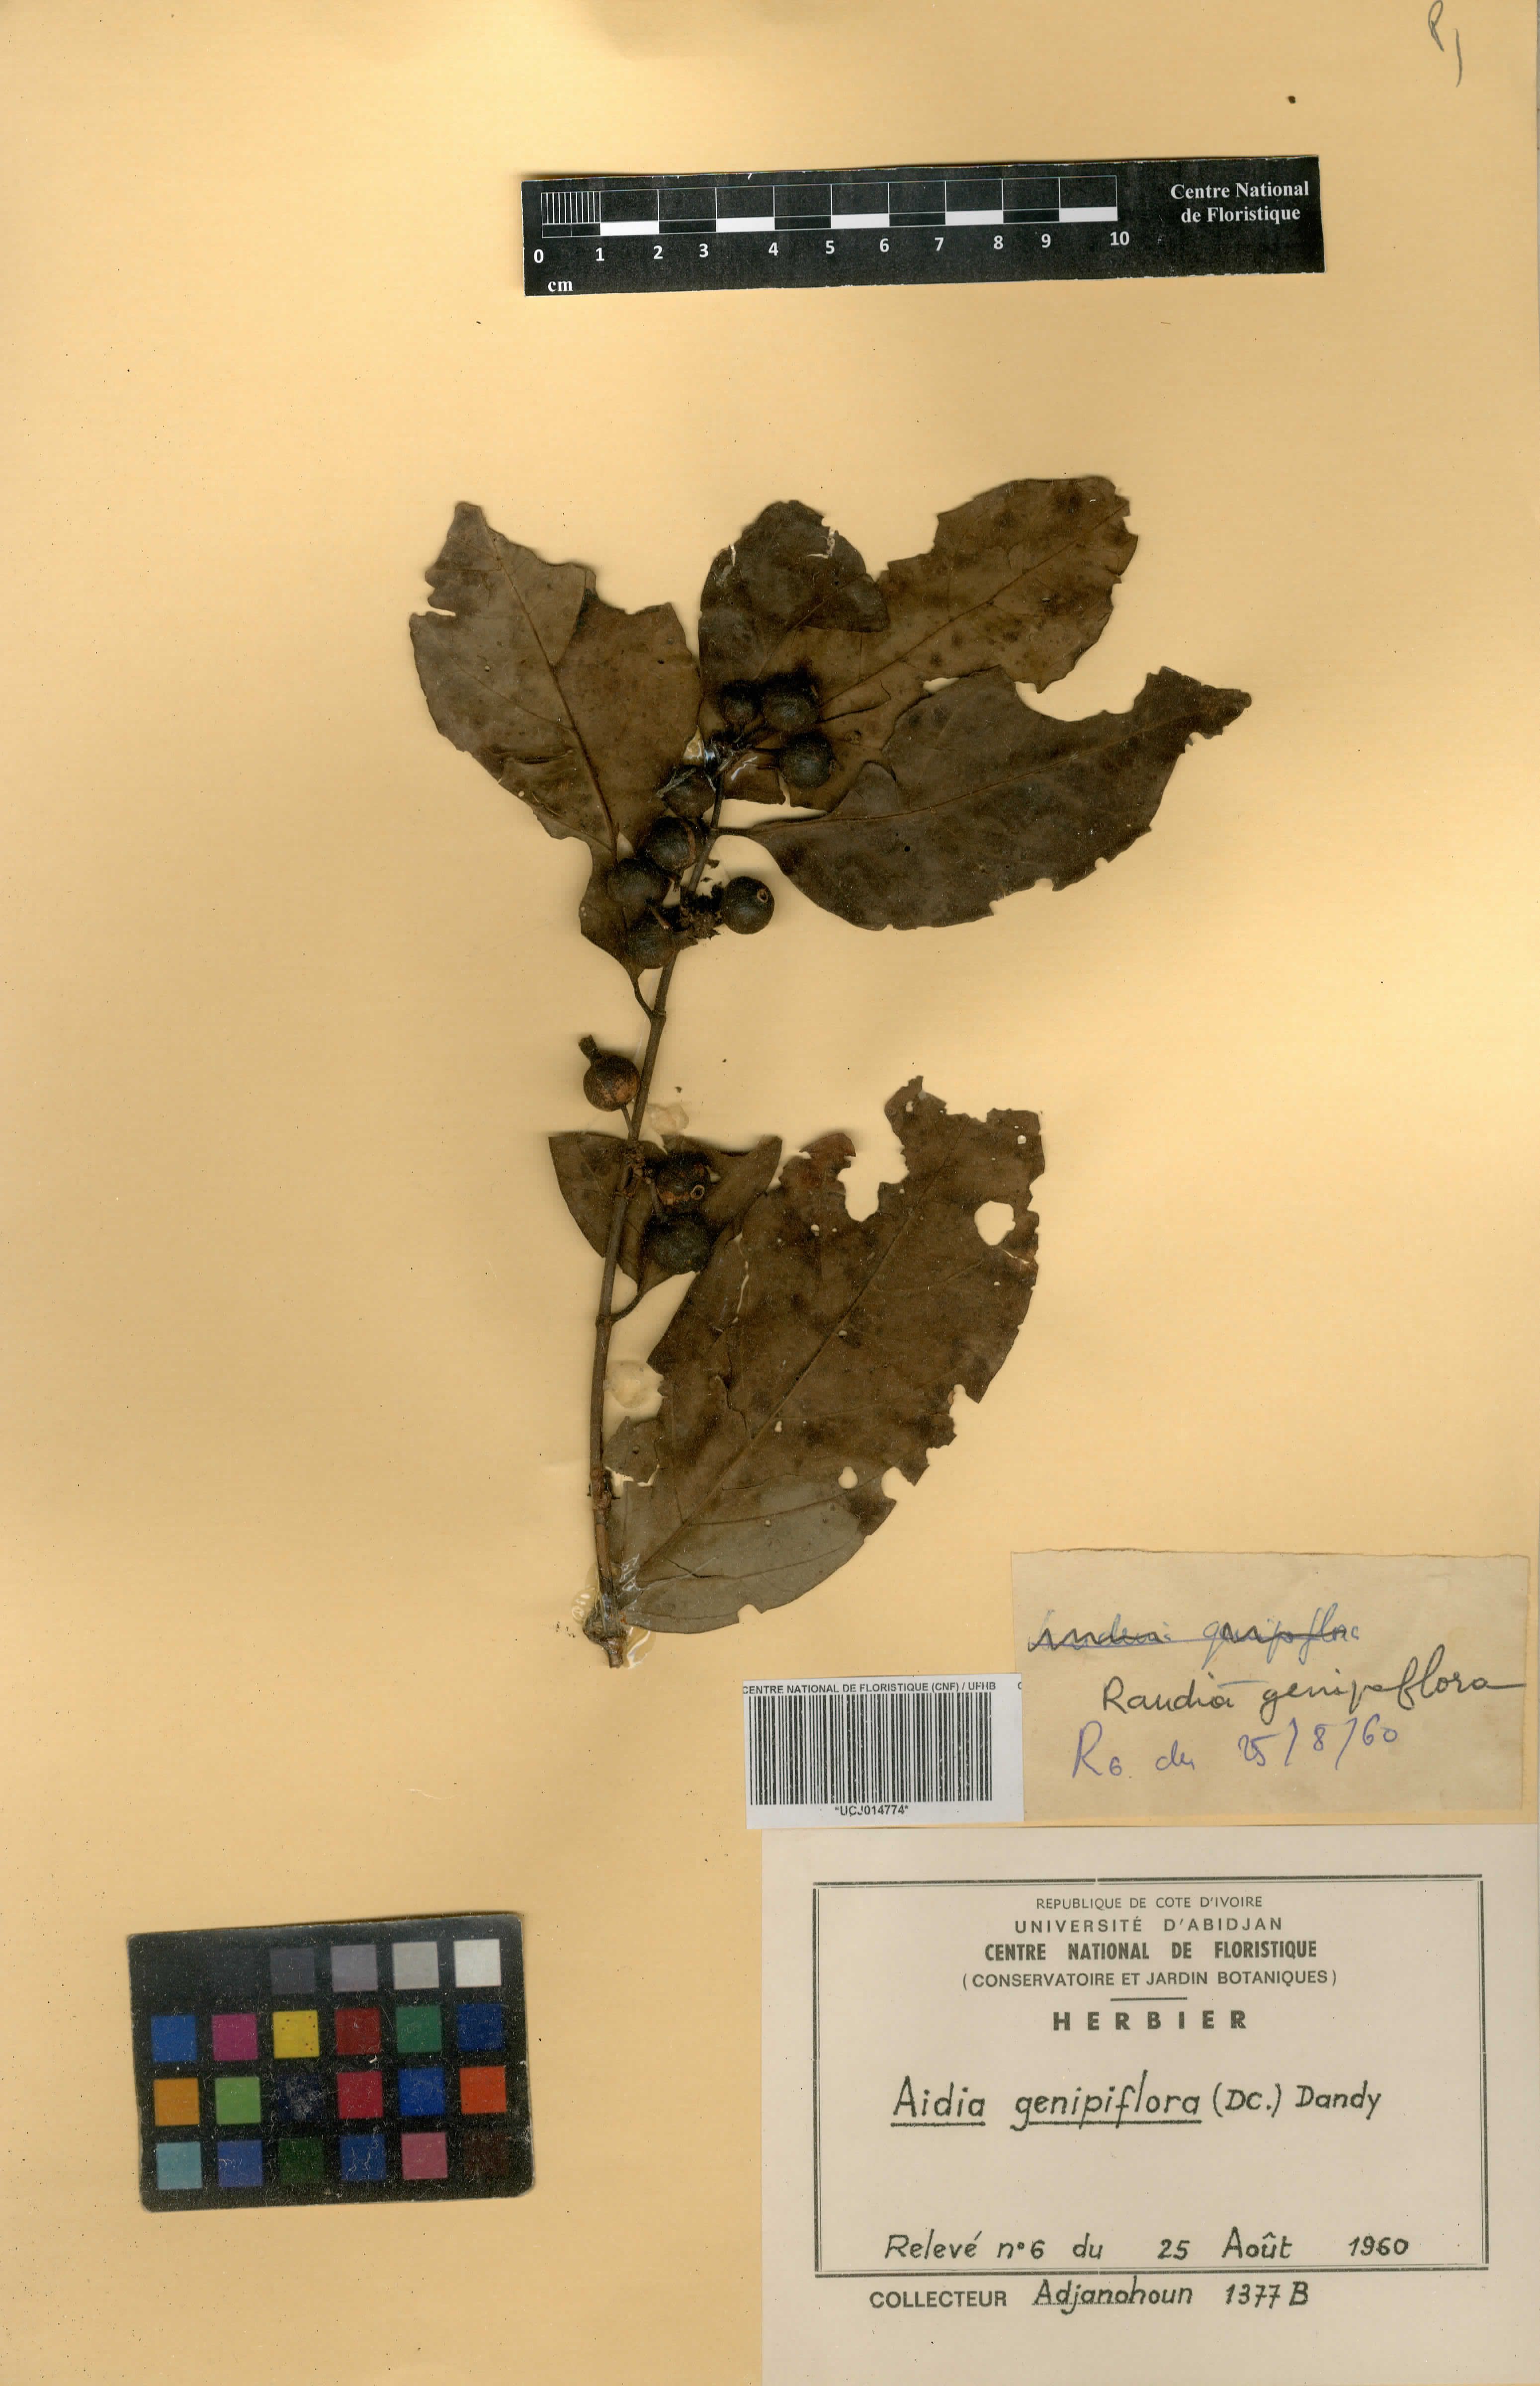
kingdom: Plantae
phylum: Tracheophyta
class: Magnoliopsida
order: Gentianales
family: Rubiaceae
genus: Aidia
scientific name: Aidia genipiflora
